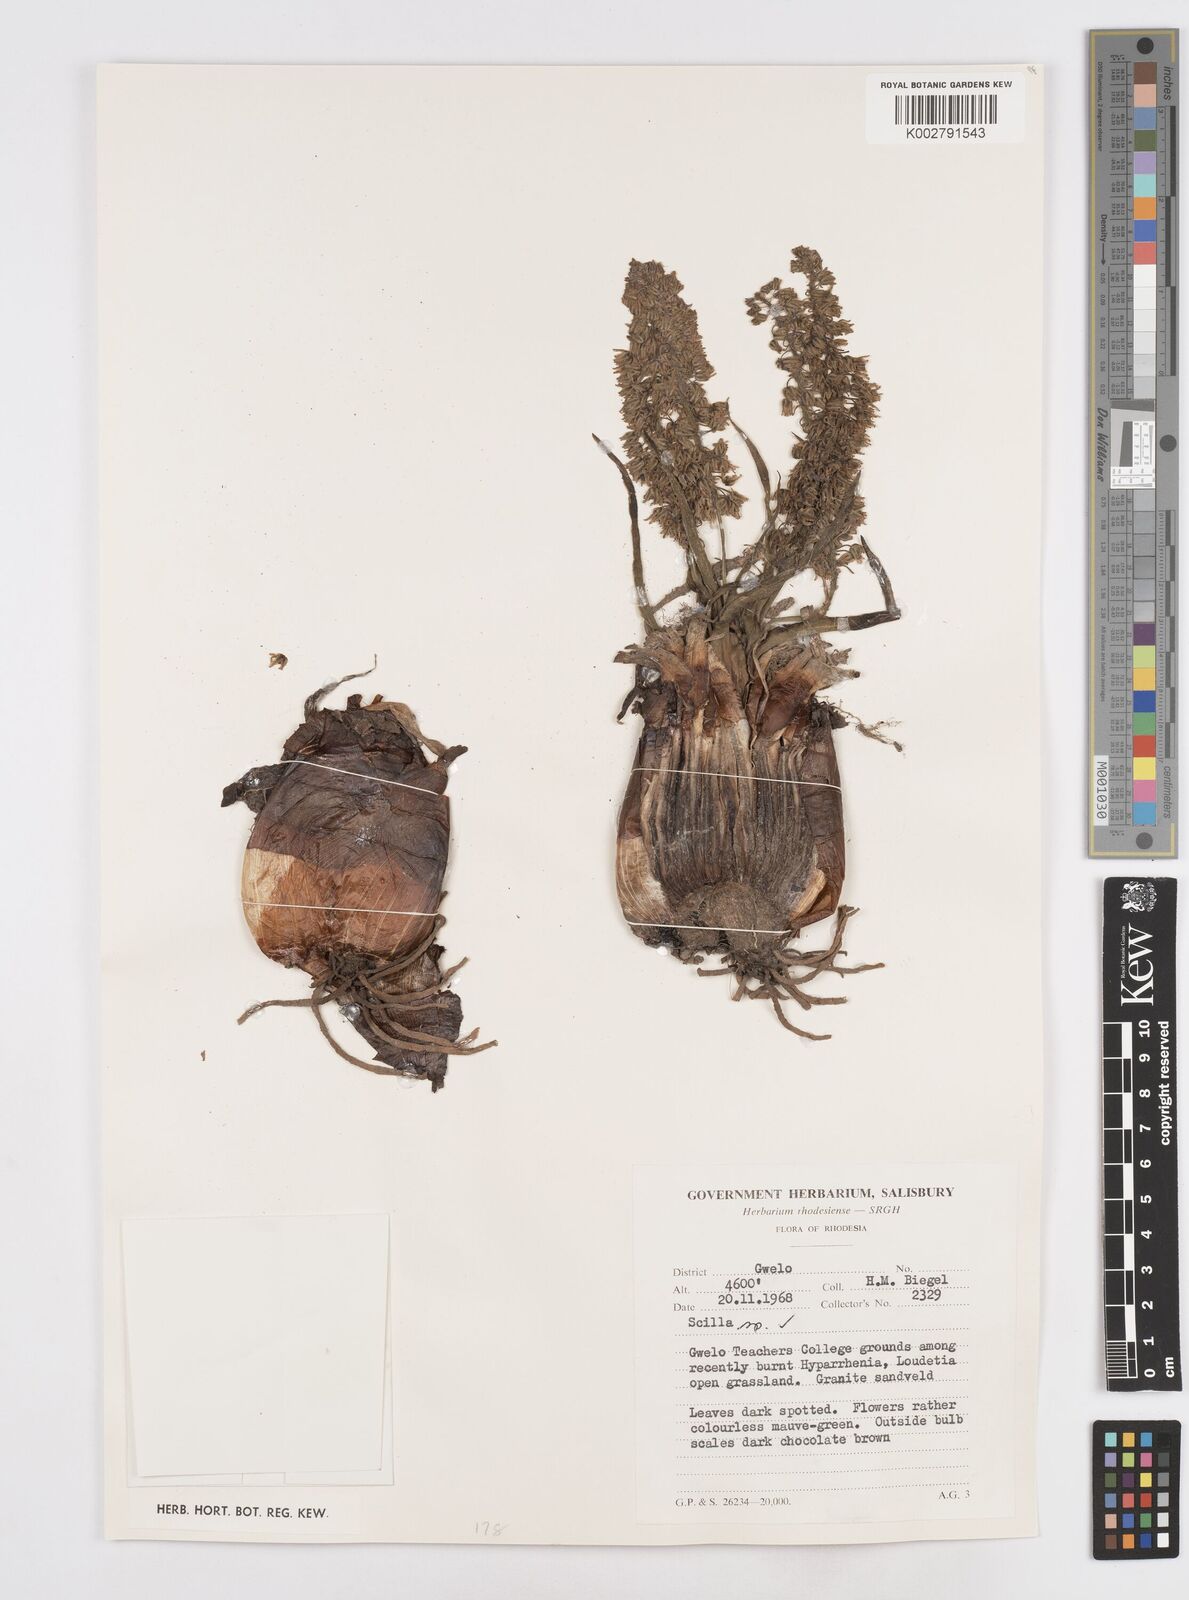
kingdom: Plantae
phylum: Tracheophyta
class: Liliopsida
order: Asparagales
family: Asparagaceae
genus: Scilla
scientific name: Scilla
